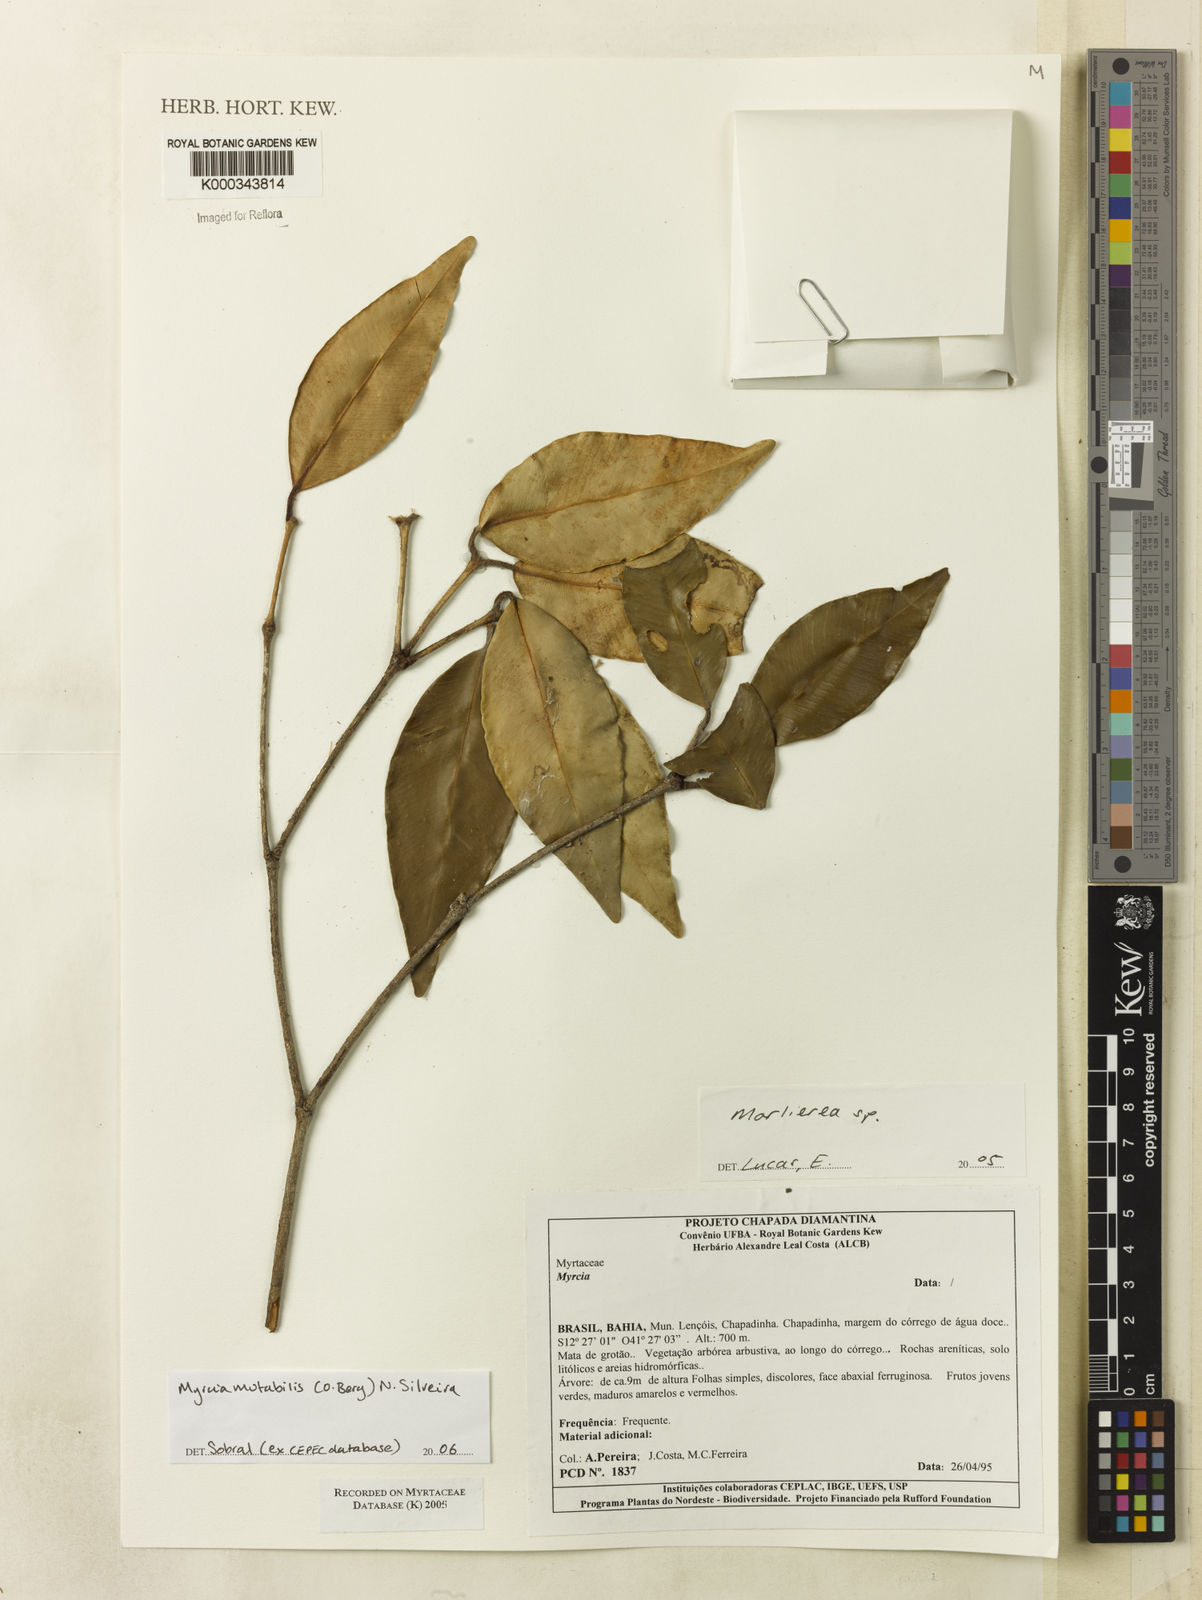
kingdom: Plantae
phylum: Tracheophyta
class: Magnoliopsida
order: Myrtales
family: Myrtaceae
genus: Marlierea
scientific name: Marlierea
